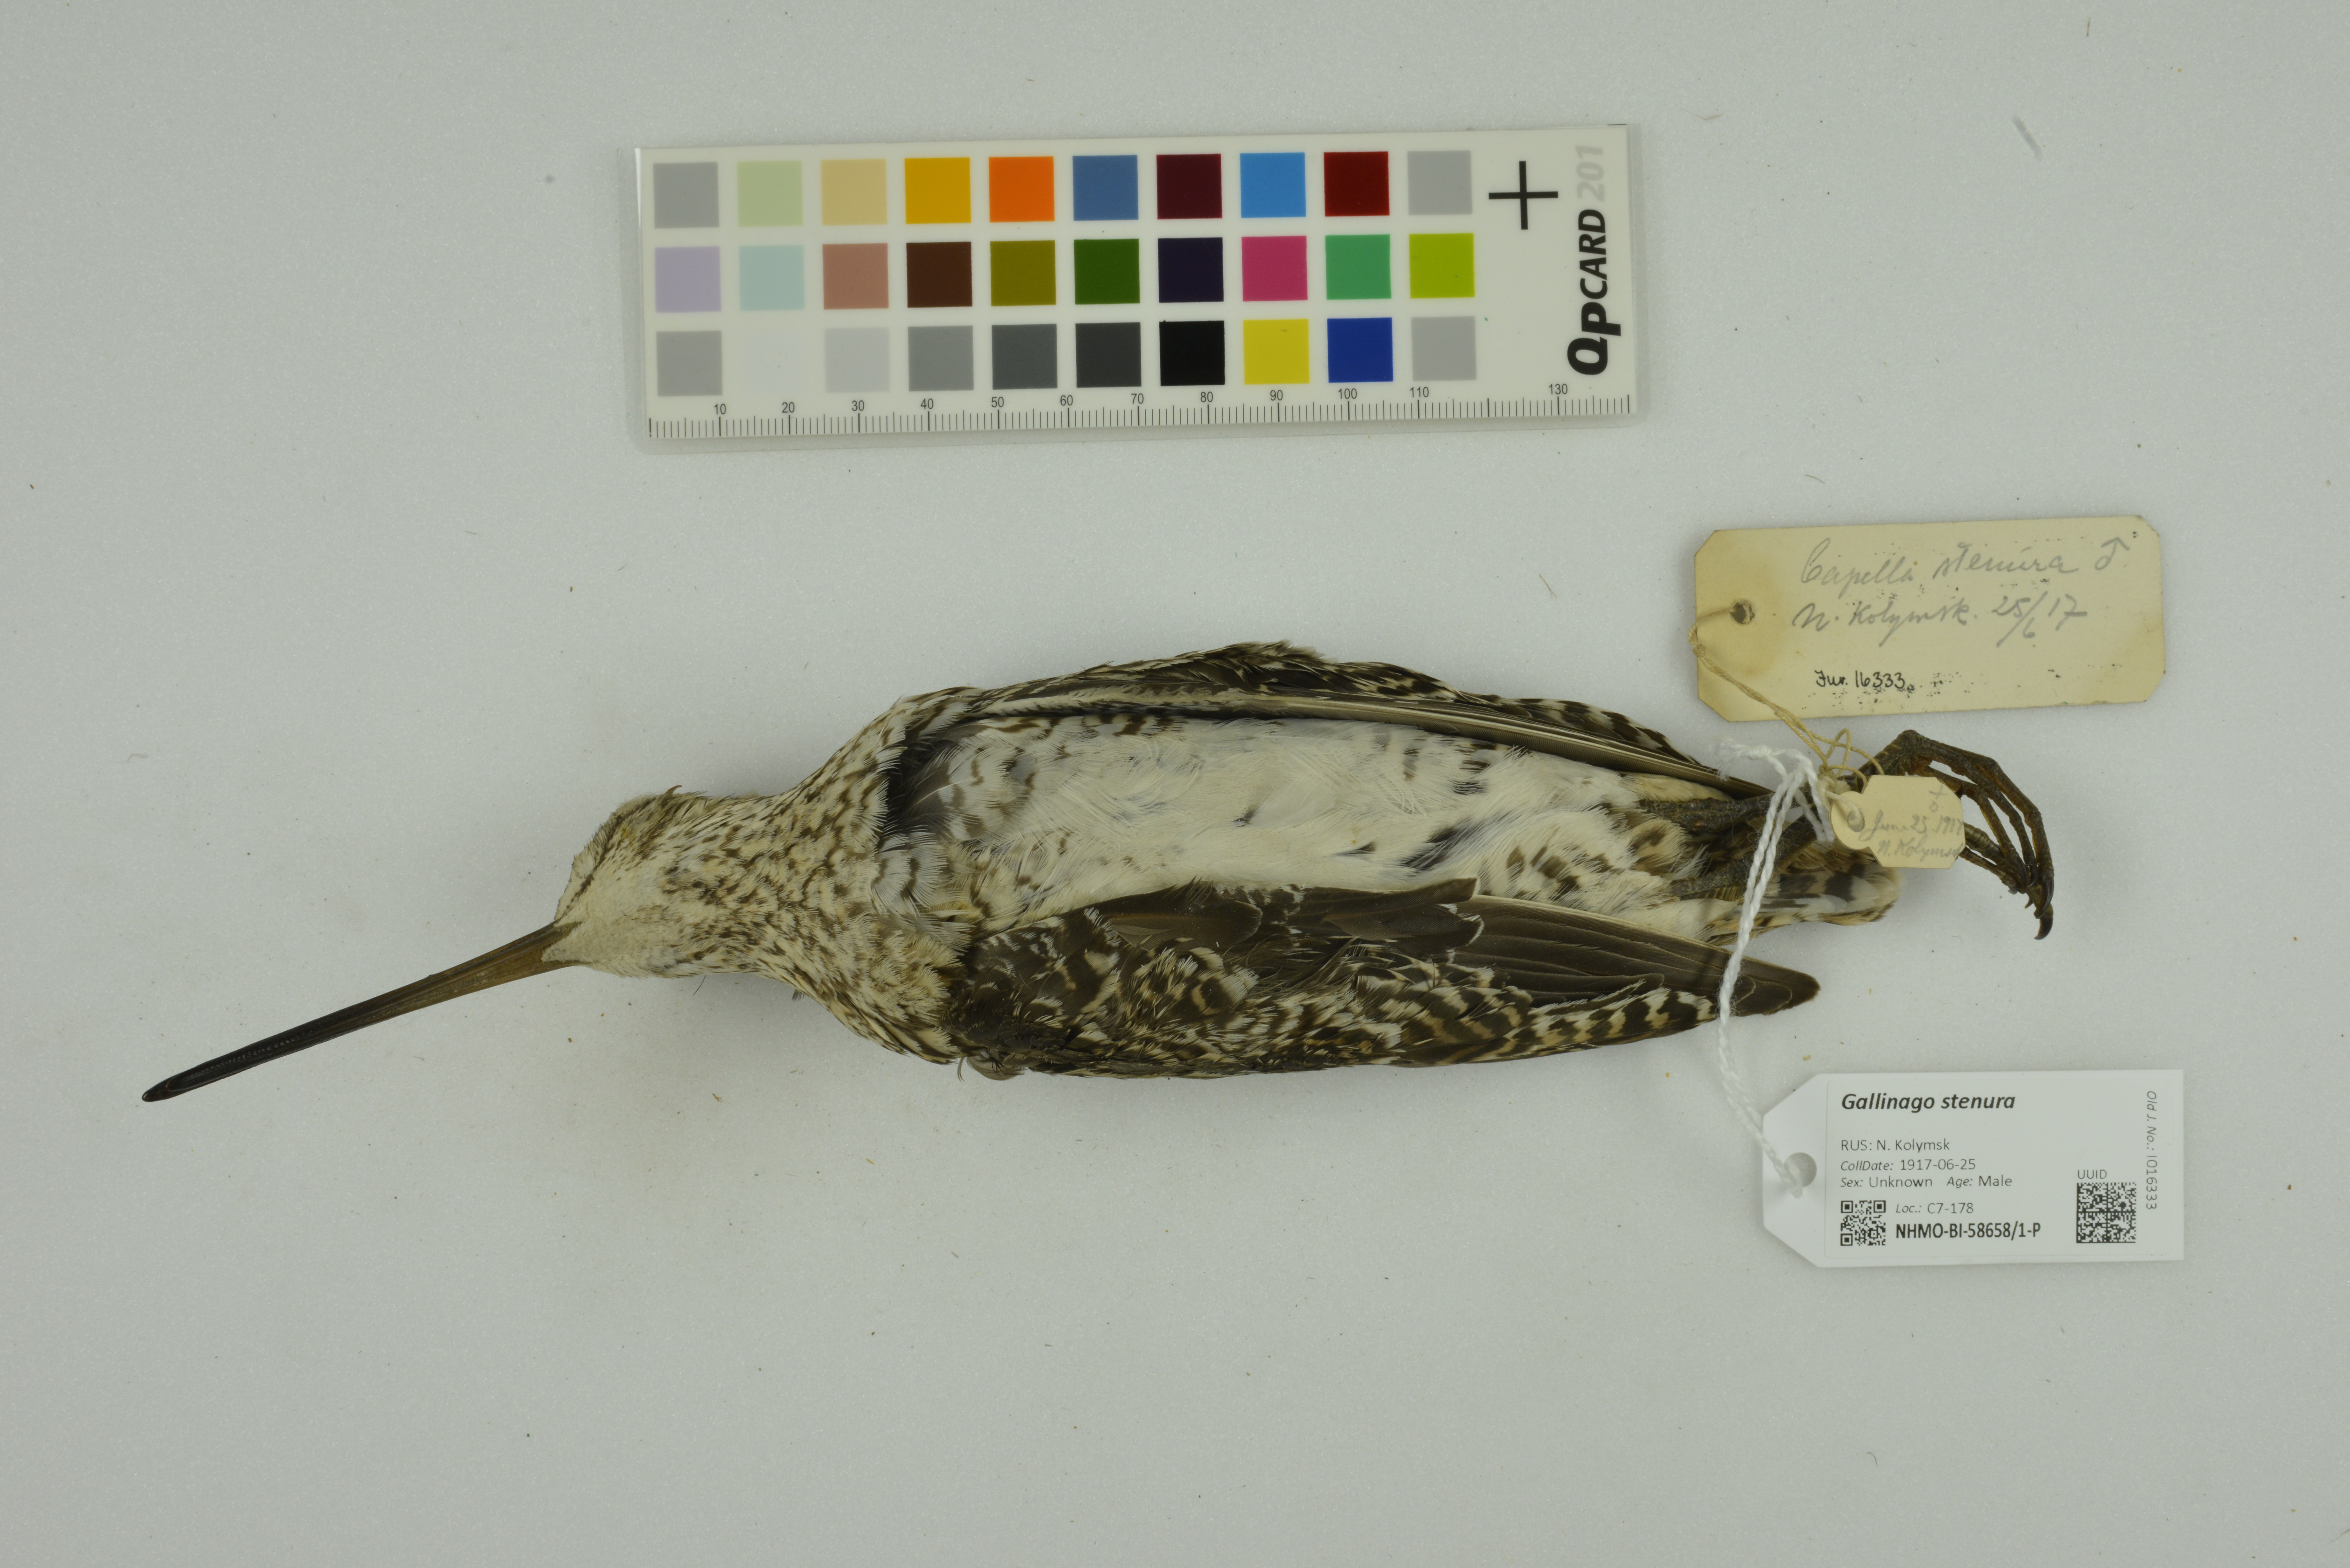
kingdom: Animalia
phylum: Chordata
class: Aves
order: Charadriiformes
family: Scolopacidae
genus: Gallinago
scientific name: Gallinago stenura
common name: Pin-tailed snipe
